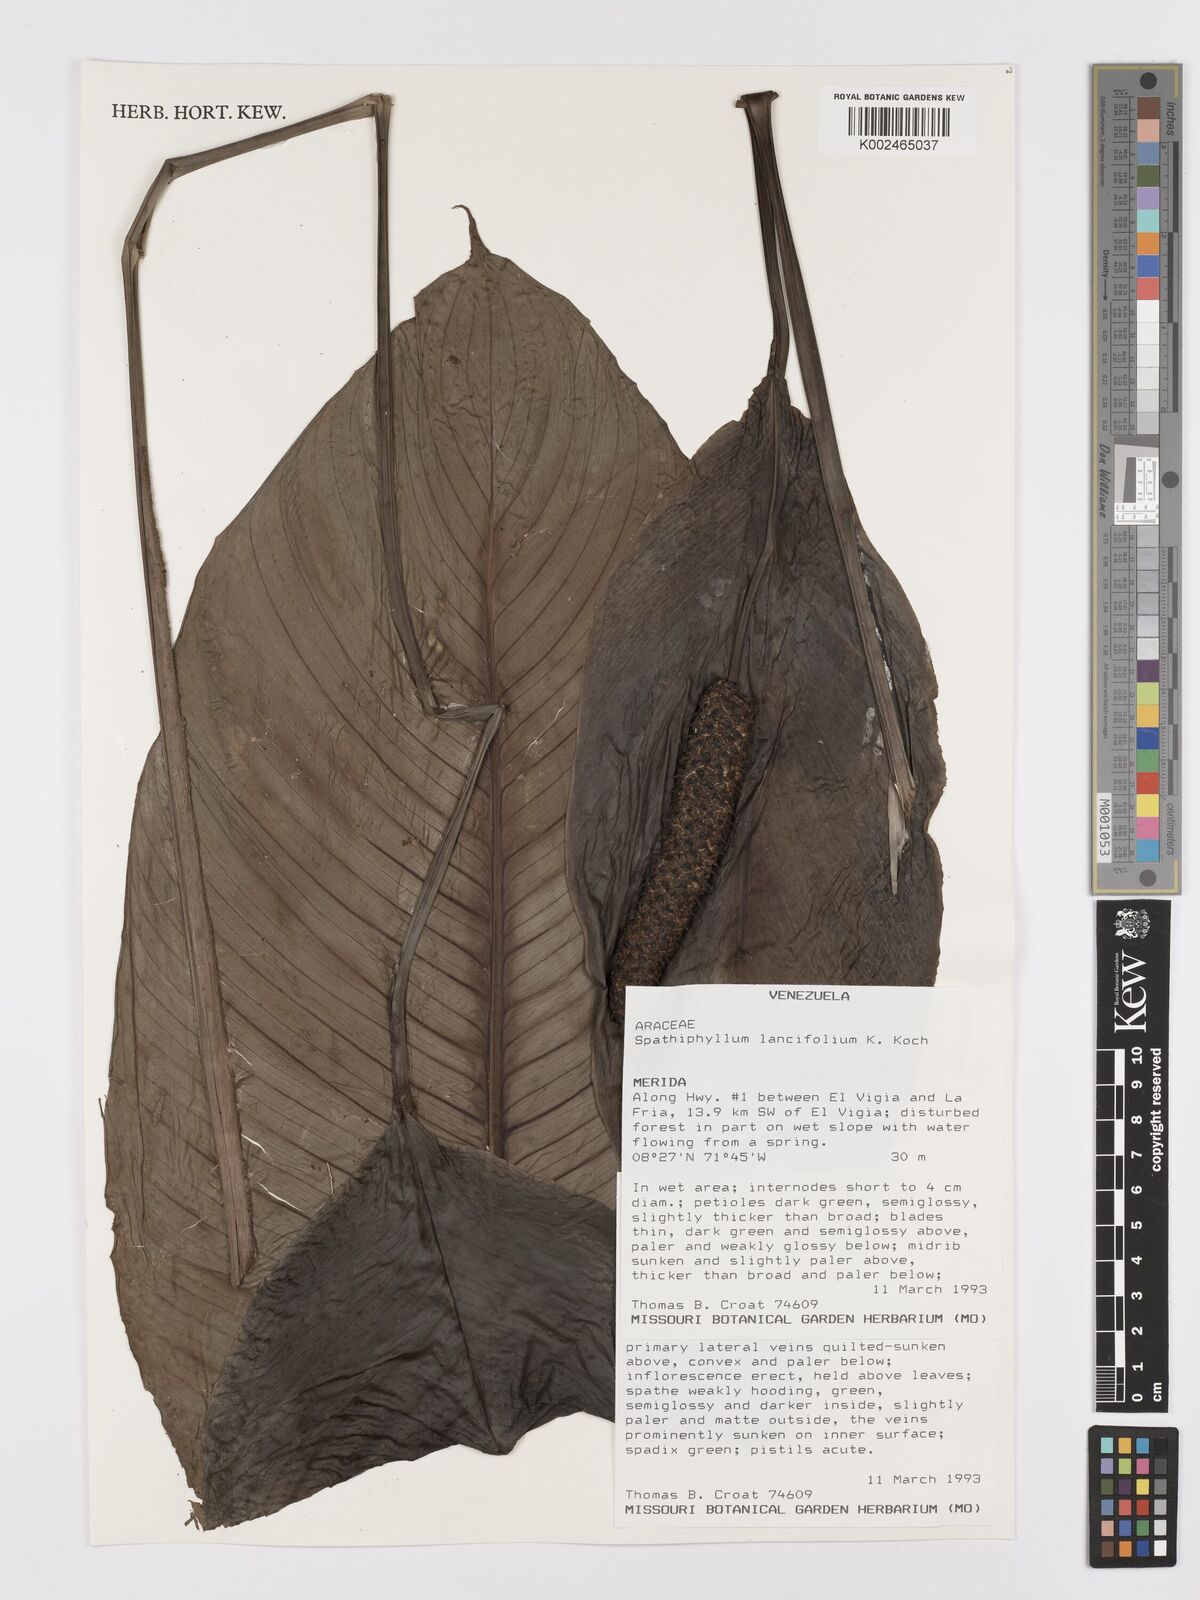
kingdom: Plantae
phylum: Tracheophyta
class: Liliopsida
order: Alismatales
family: Araceae
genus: Spathiphyllum
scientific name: Spathiphyllum lanceifolium
